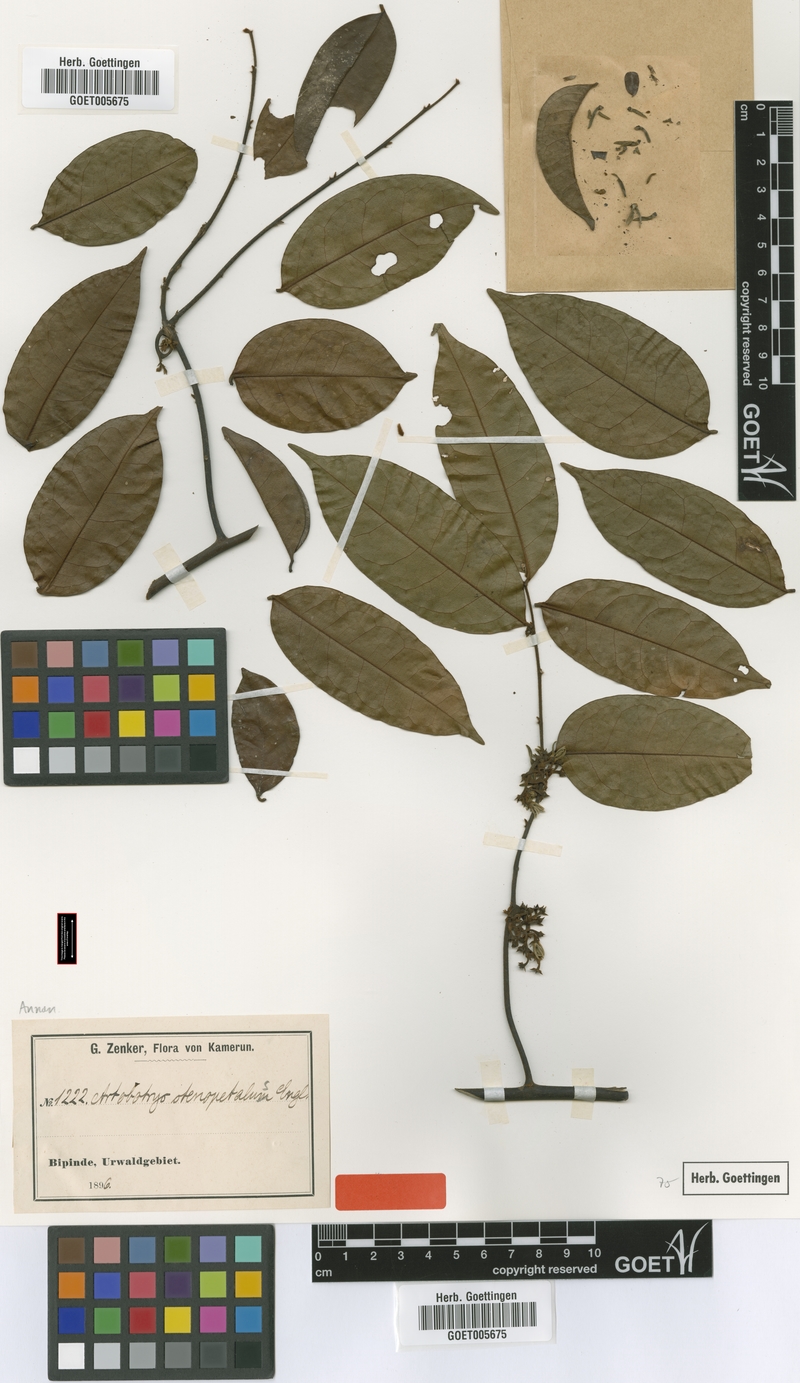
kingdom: Plantae
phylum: Tracheophyta
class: Magnoliopsida
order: Magnoliales
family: Annonaceae
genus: Artabotrys
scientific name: Artabotrys stenopetalus
